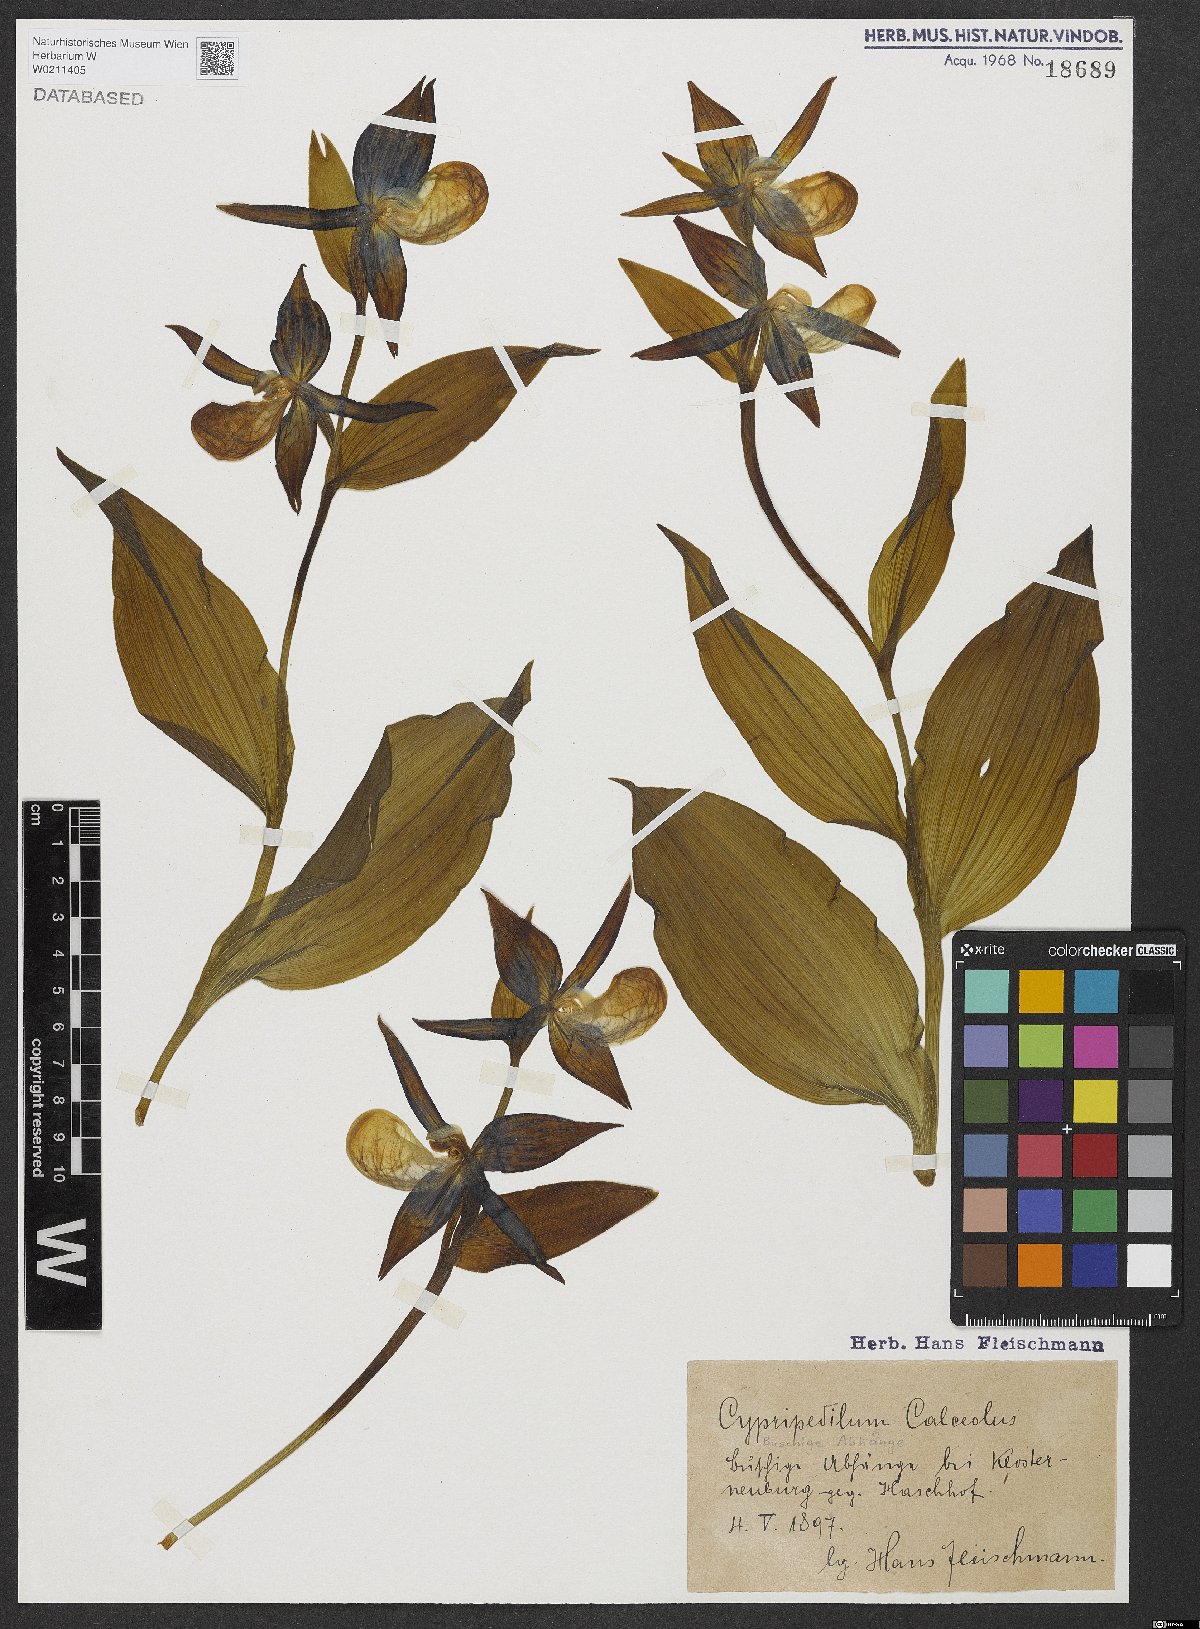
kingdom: Plantae
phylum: Tracheophyta
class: Liliopsida
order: Asparagales
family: Orchidaceae
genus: Cypripedium
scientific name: Cypripedium calceolus
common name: Lady's-slipper
